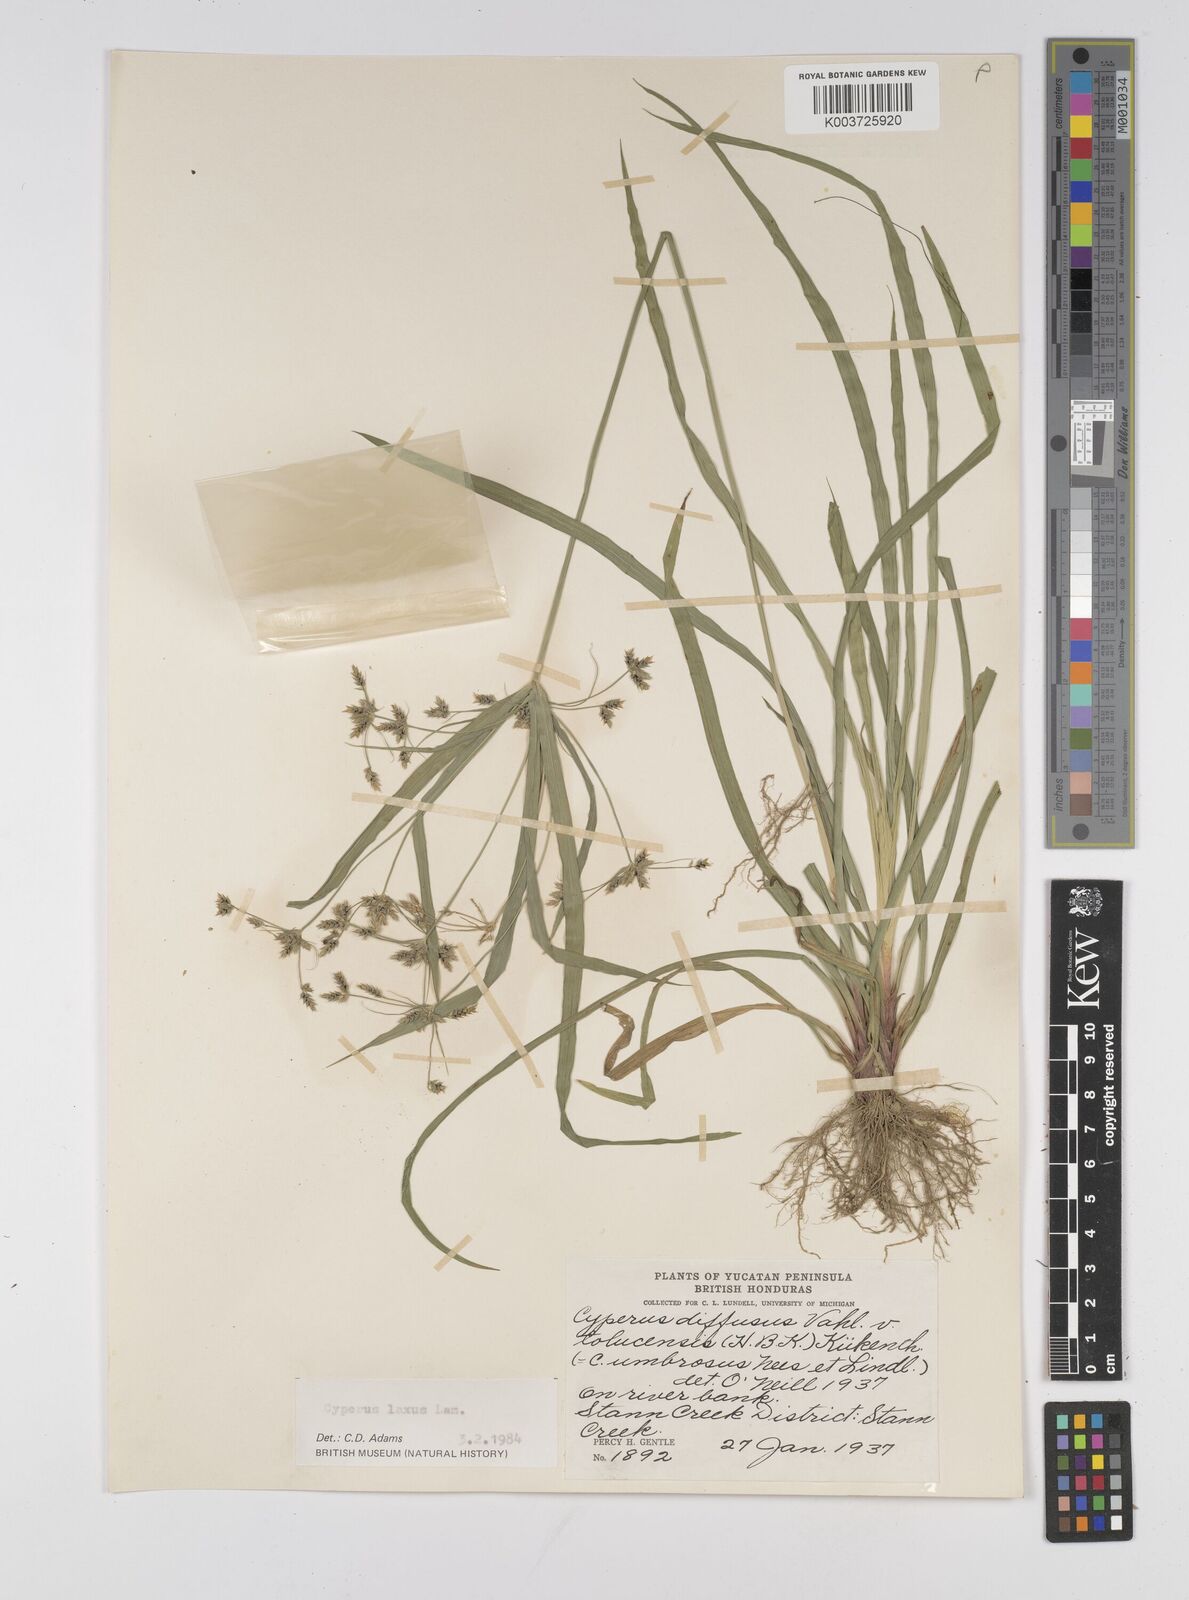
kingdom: Plantae
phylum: Tracheophyta
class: Liliopsida
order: Poales
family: Cyperaceae
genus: Cyperus
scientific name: Cyperus chalaranthus
